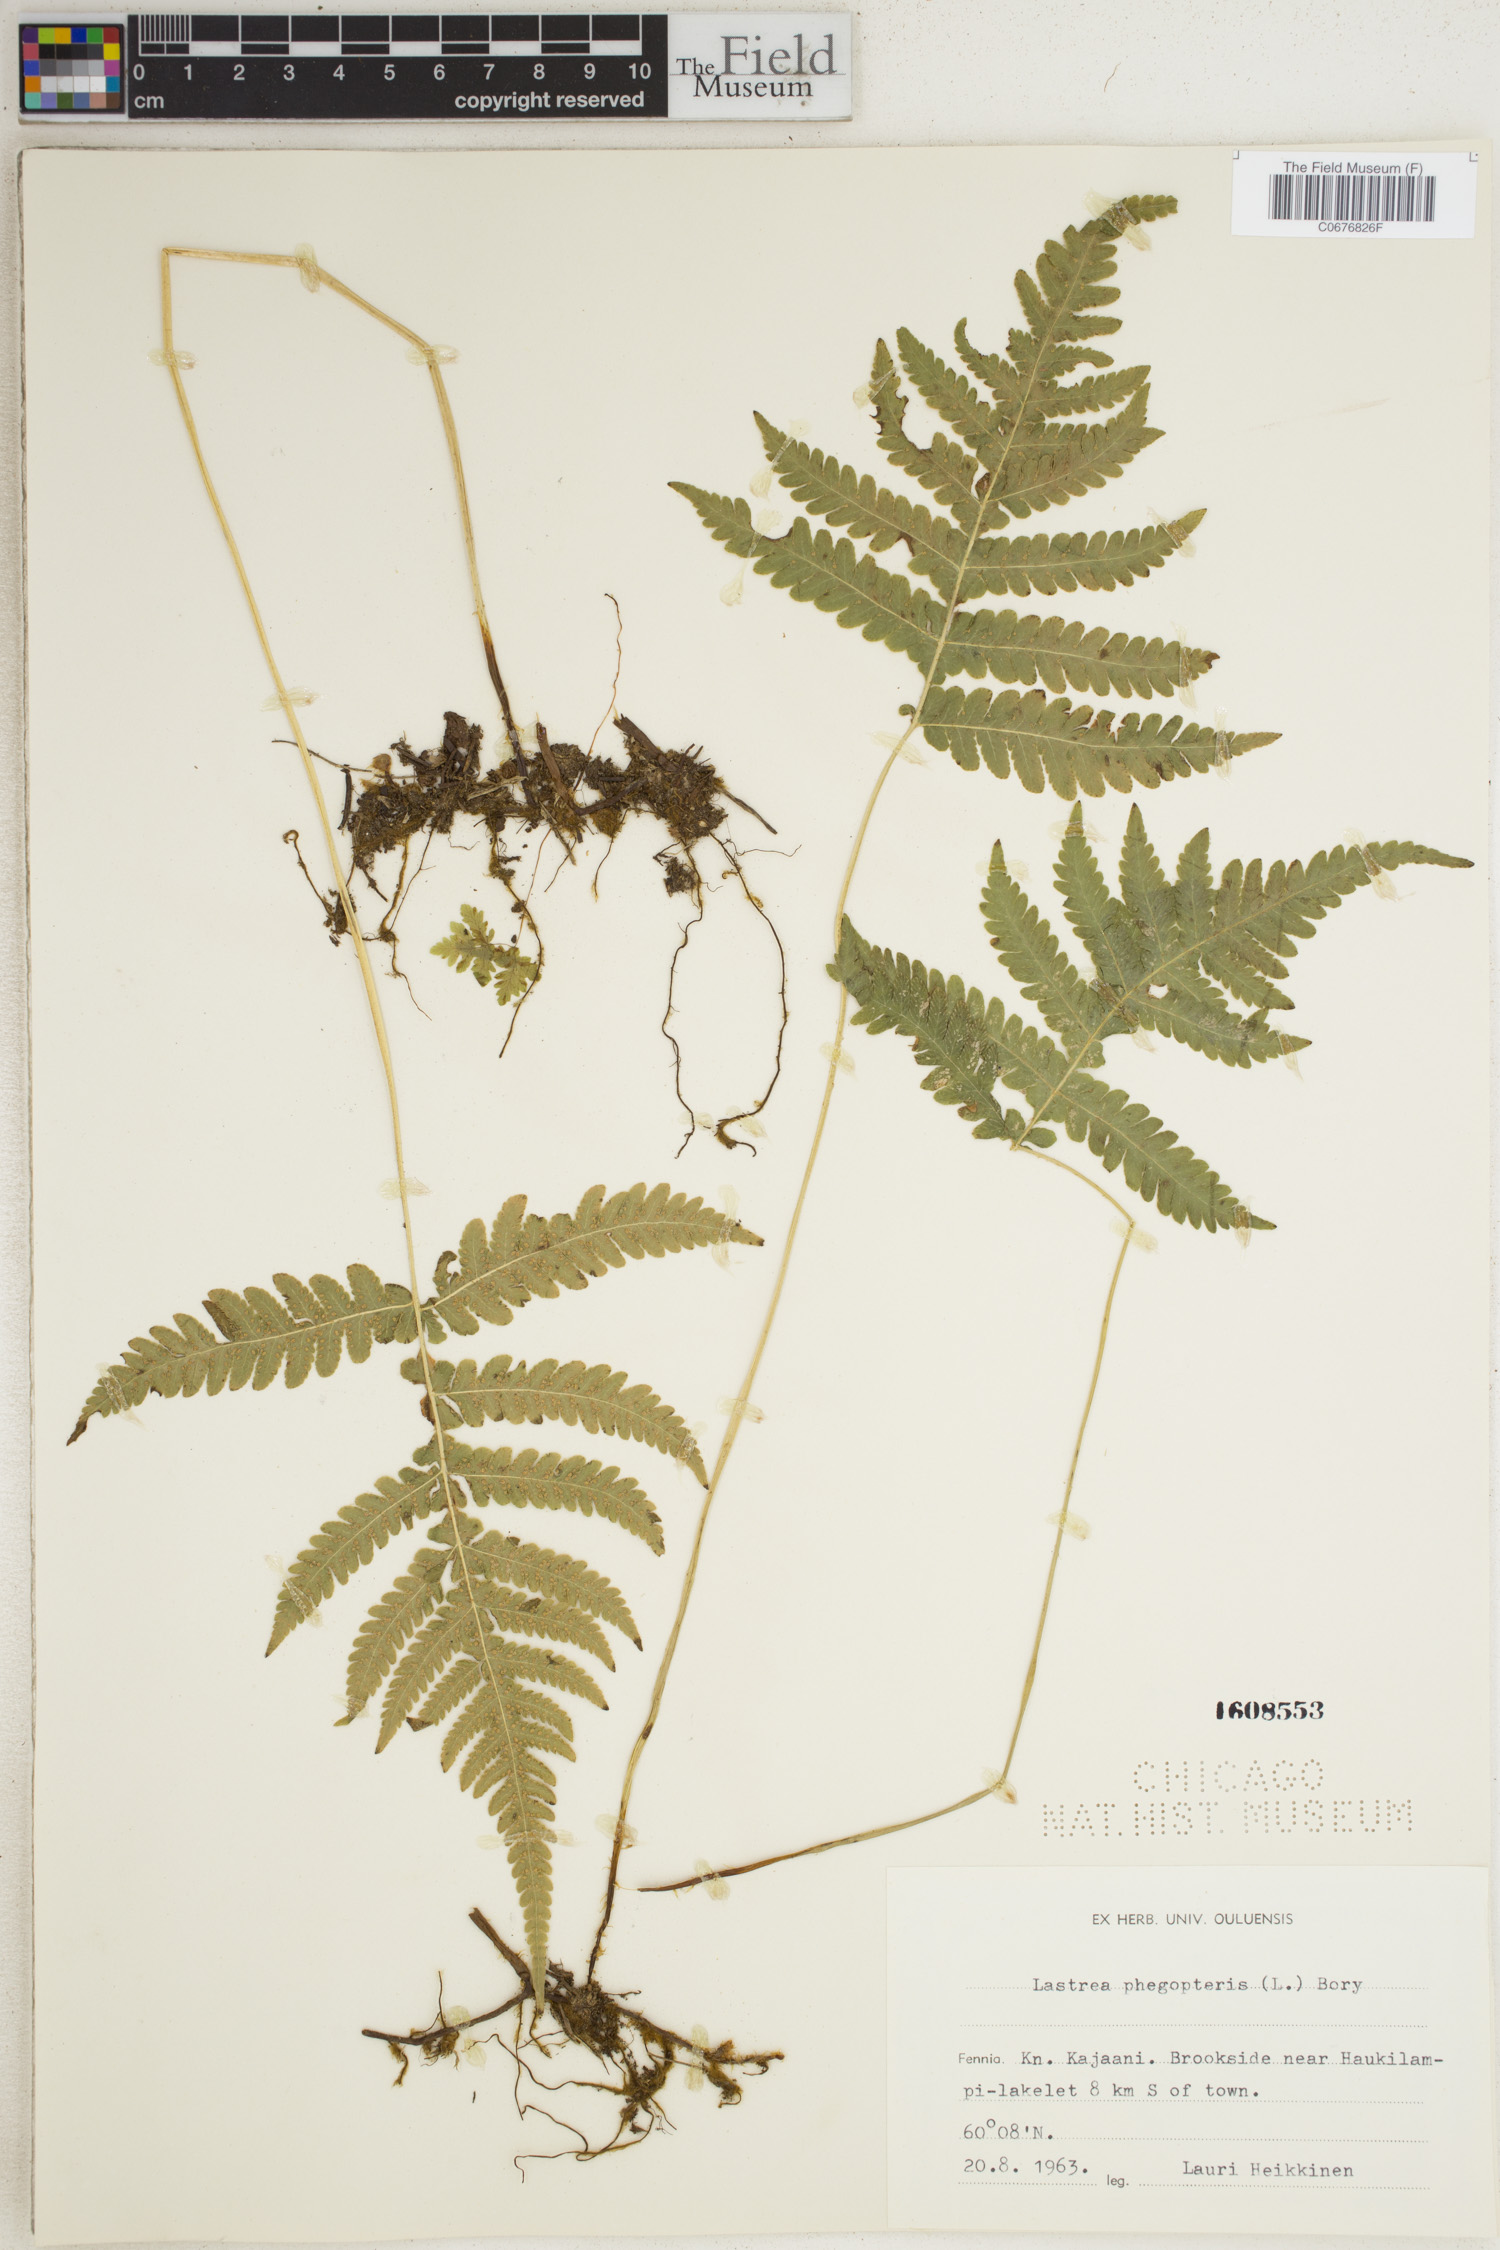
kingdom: Plantae
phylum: Tracheophyta
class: Polypodiopsida
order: Polypodiales
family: Thelypteridaceae
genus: Phegopteris
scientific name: Phegopteris connectilis
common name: Beech fern
